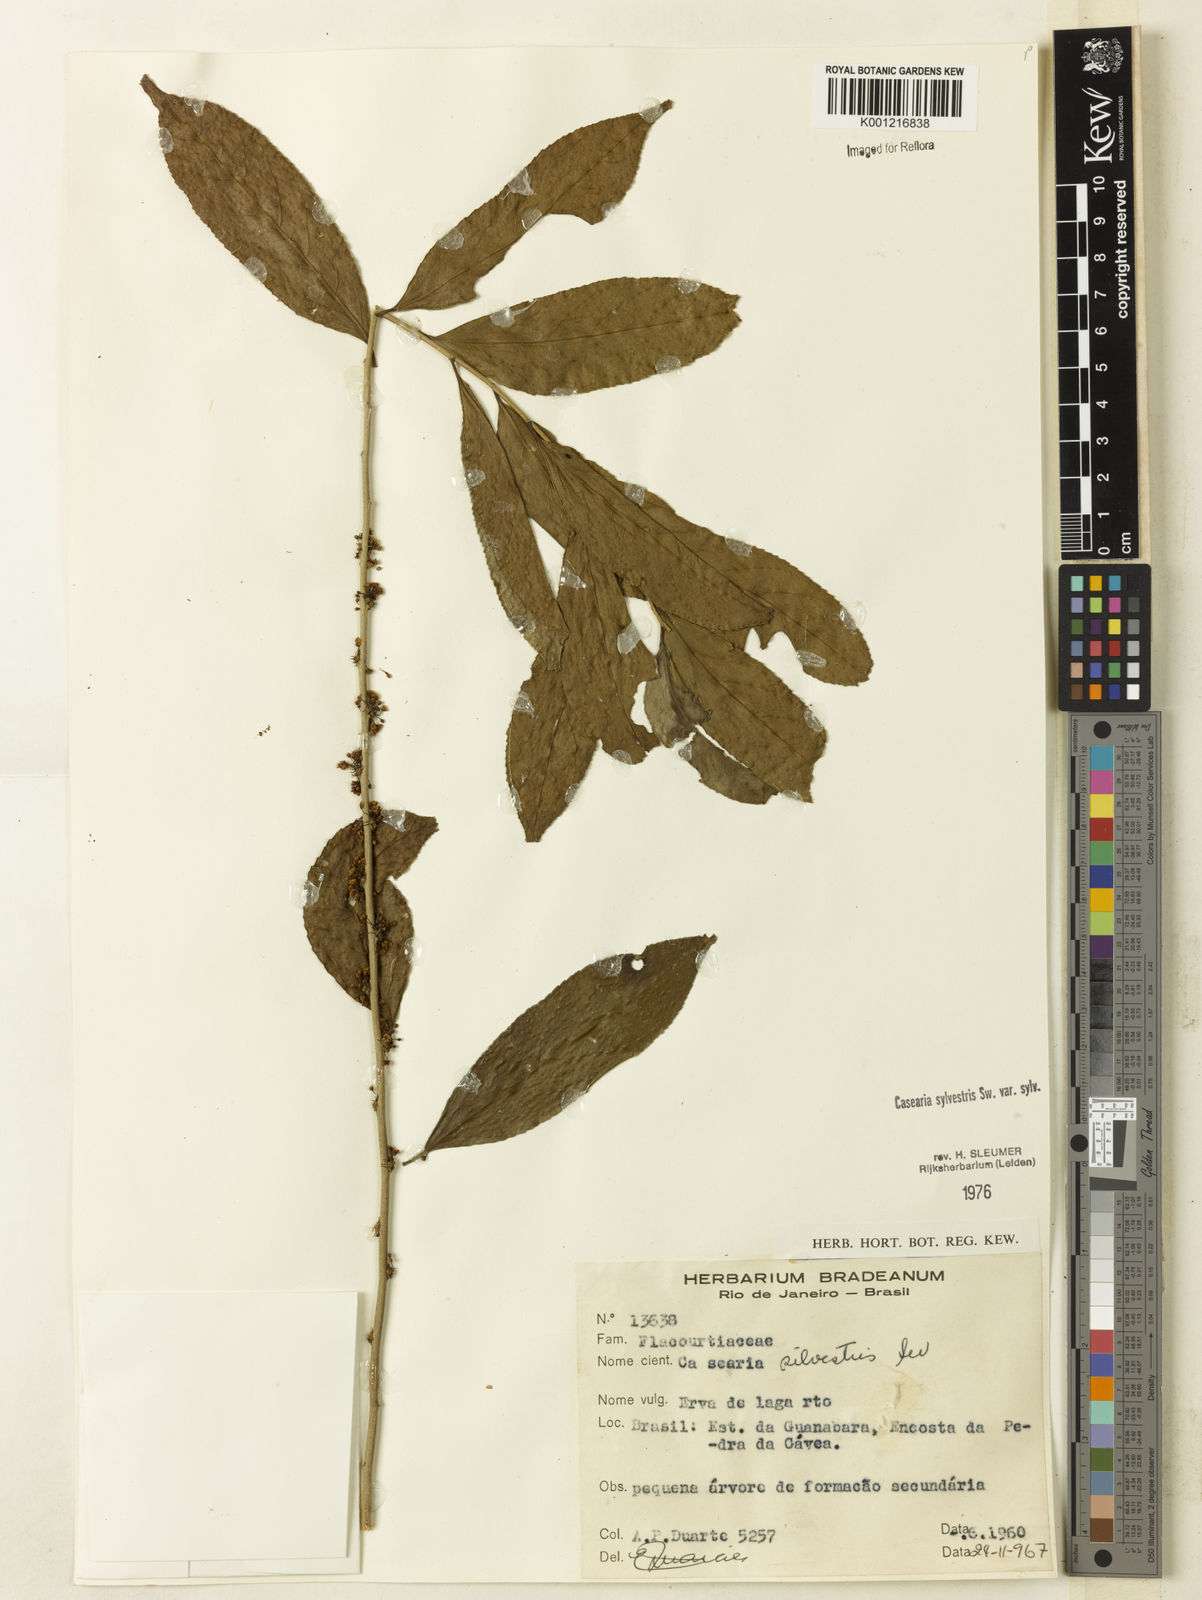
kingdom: Plantae
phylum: Tracheophyta
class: Magnoliopsida
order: Malpighiales
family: Salicaceae
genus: Casearia
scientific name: Casearia sylvestris
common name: Wild sage
